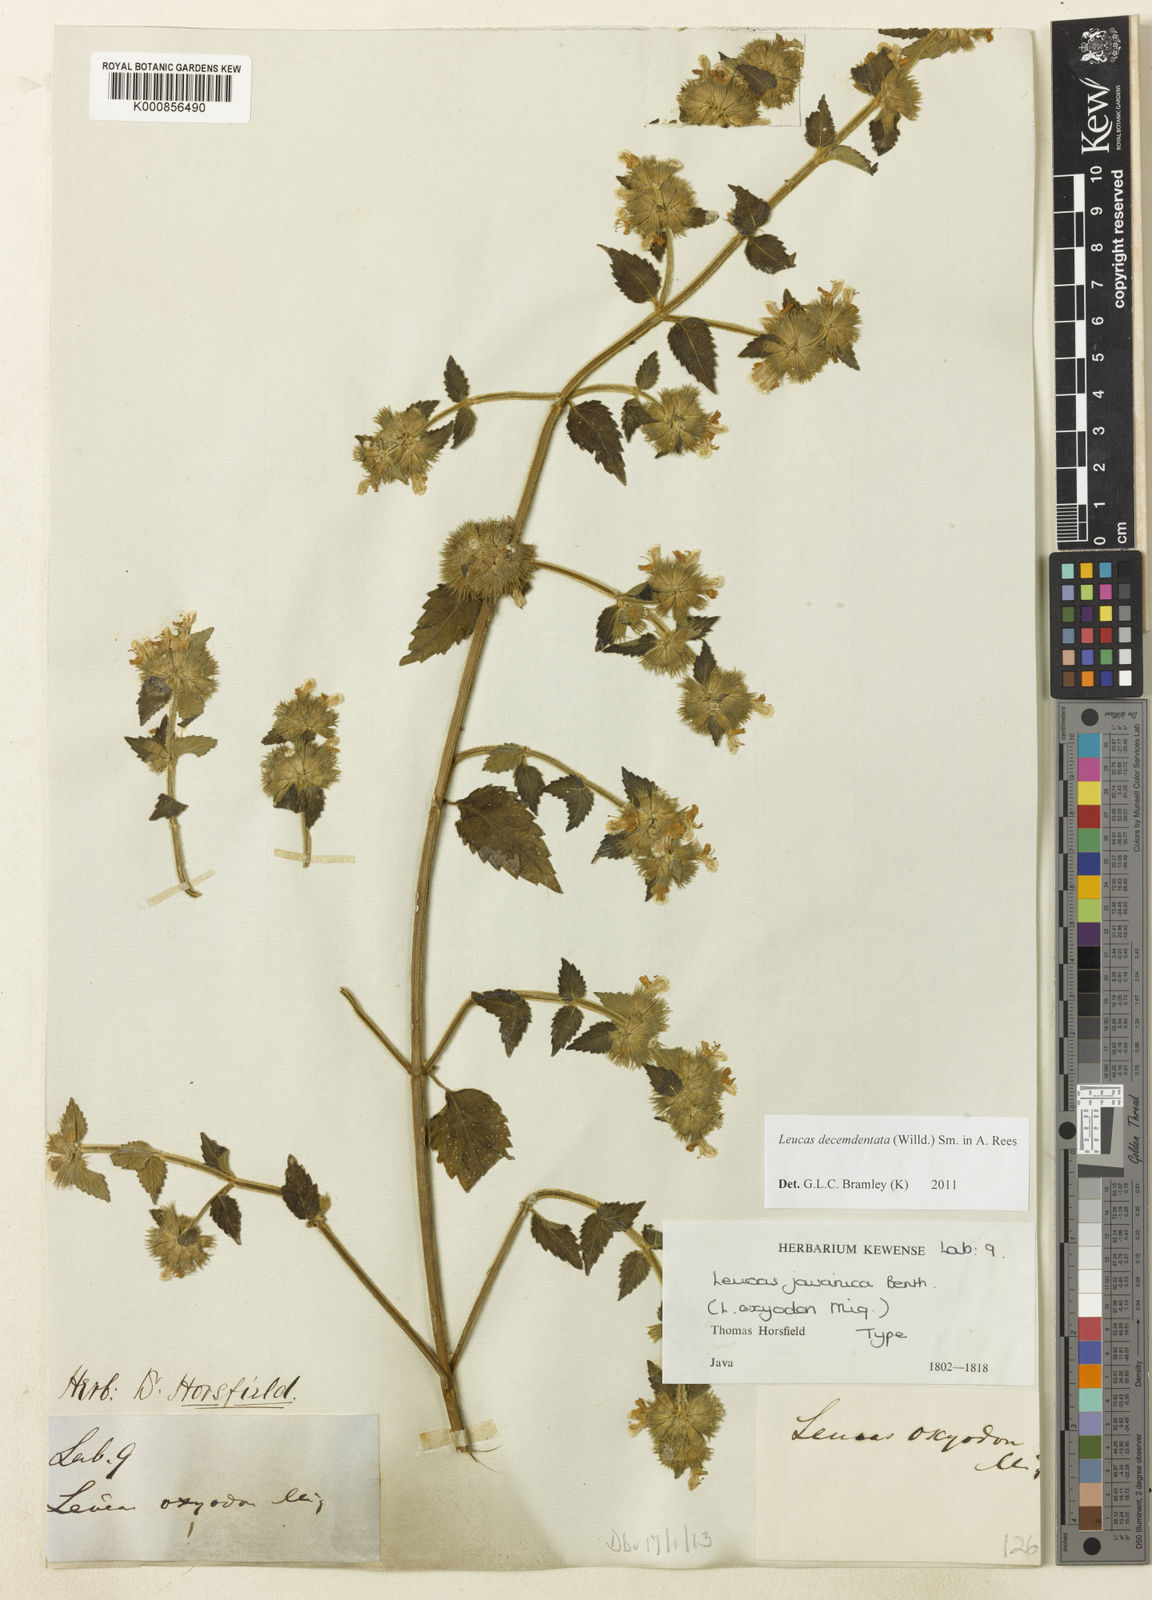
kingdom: Plantae
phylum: Tracheophyta
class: Magnoliopsida
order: Lamiales
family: Lamiaceae
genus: Leucas
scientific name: Leucas decemdentata
